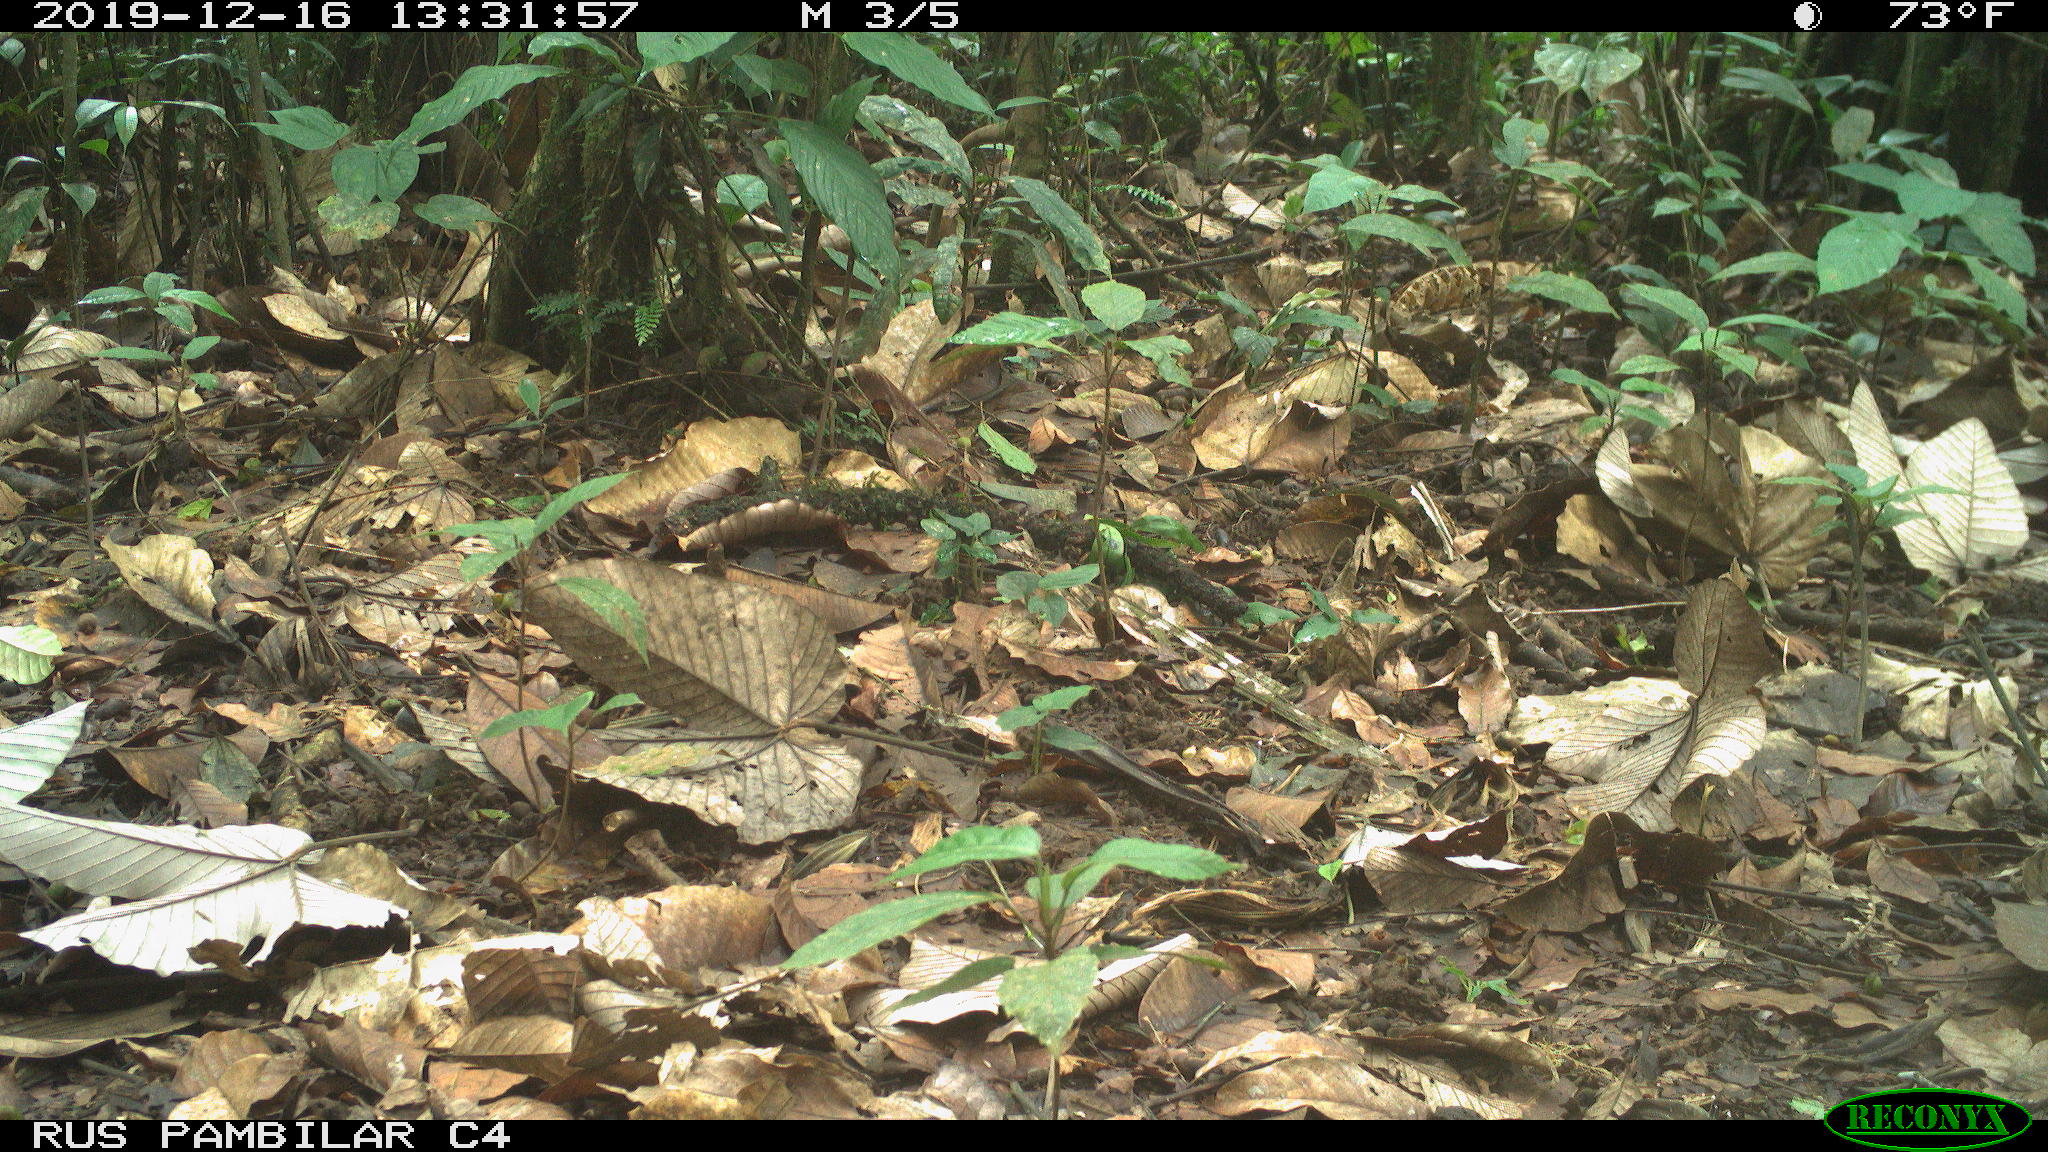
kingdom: Animalia
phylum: Chordata
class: Mammalia
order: Rodentia
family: Dasyproctidae
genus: Dasyprocta
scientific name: Dasyprocta punctata
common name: Central american agouti
